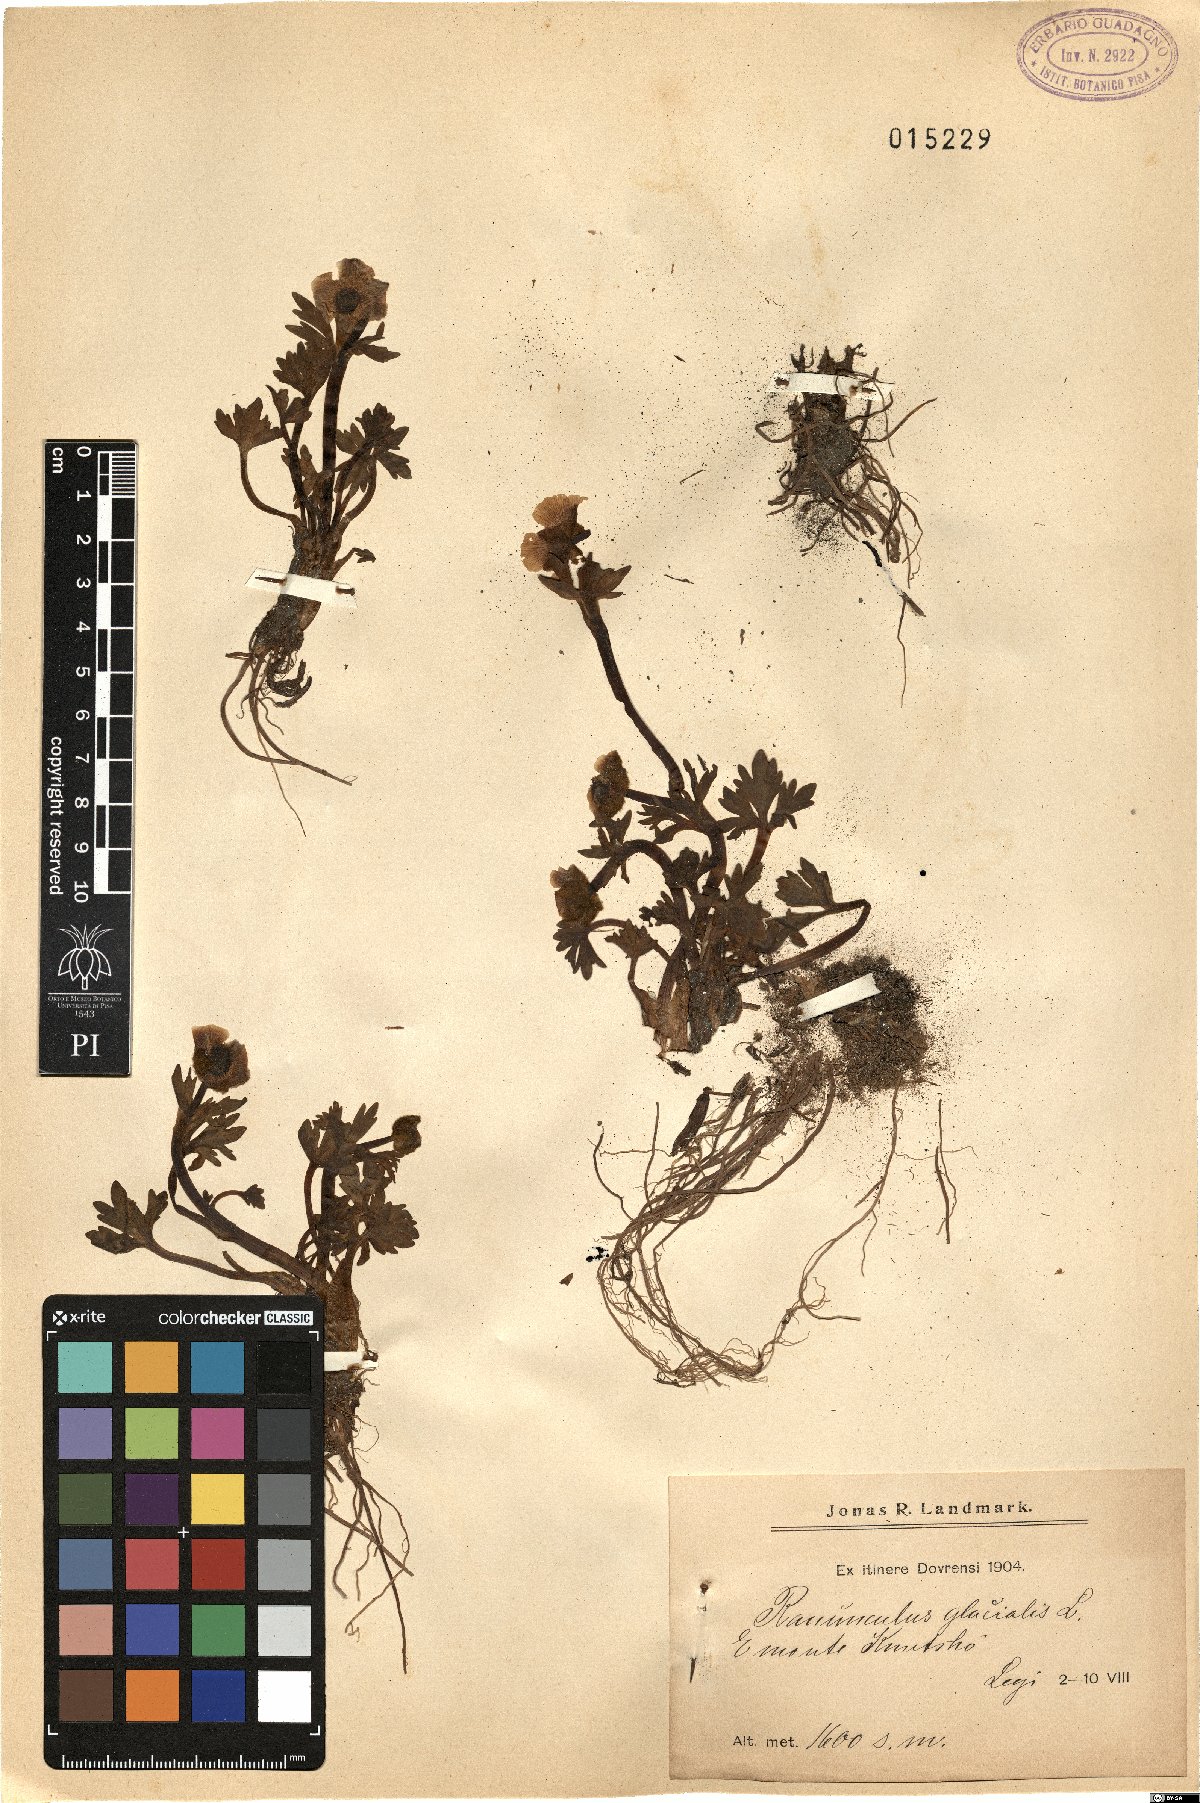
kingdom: Plantae
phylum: Tracheophyta
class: Magnoliopsida
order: Ranunculales
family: Ranunculaceae
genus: Ranunculus
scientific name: Ranunculus glacialis
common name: Glacier buttercup
